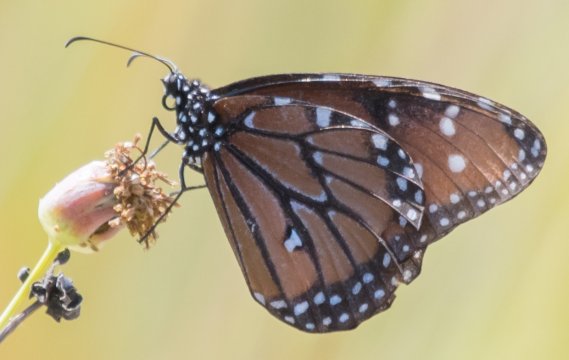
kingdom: Animalia
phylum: Arthropoda
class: Insecta
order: Lepidoptera
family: Nymphalidae
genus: Danaus
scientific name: Danaus eresimus
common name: Soldier
